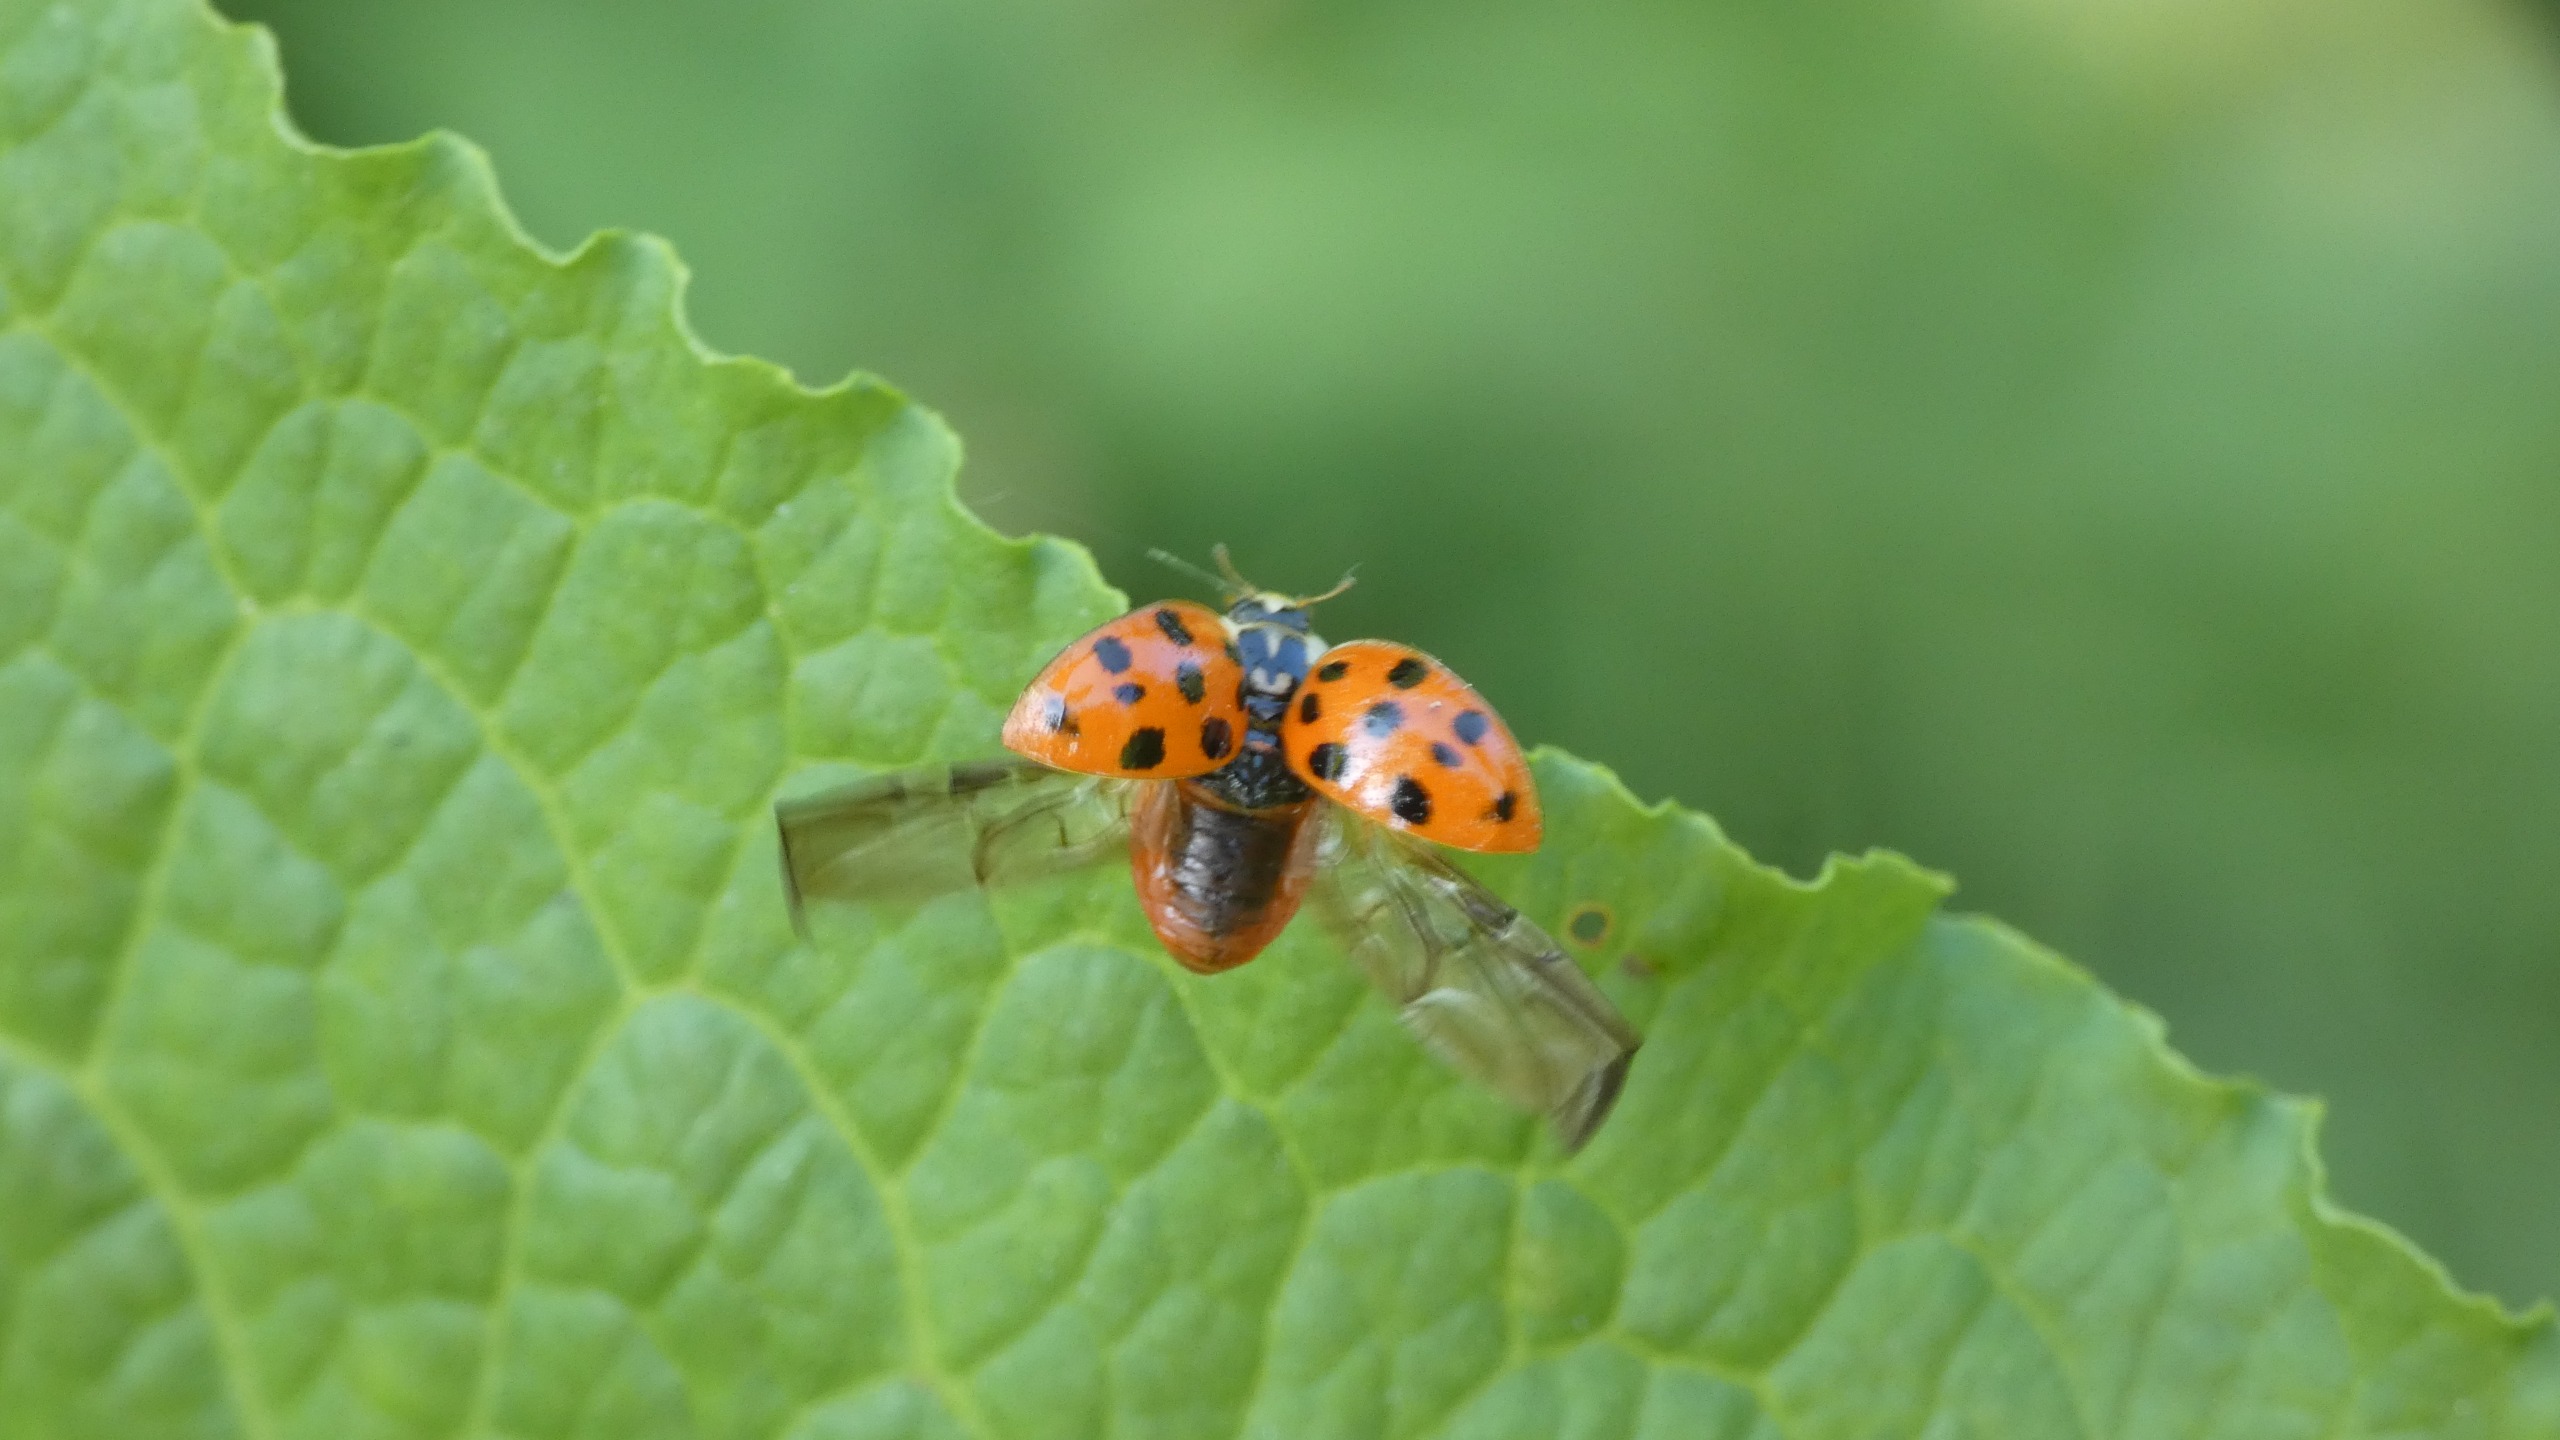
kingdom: Animalia
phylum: Arthropoda
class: Insecta
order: Coleoptera
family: Coccinellidae
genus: Harmonia
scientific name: Harmonia axyridis
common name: Harlekinmariehøne
